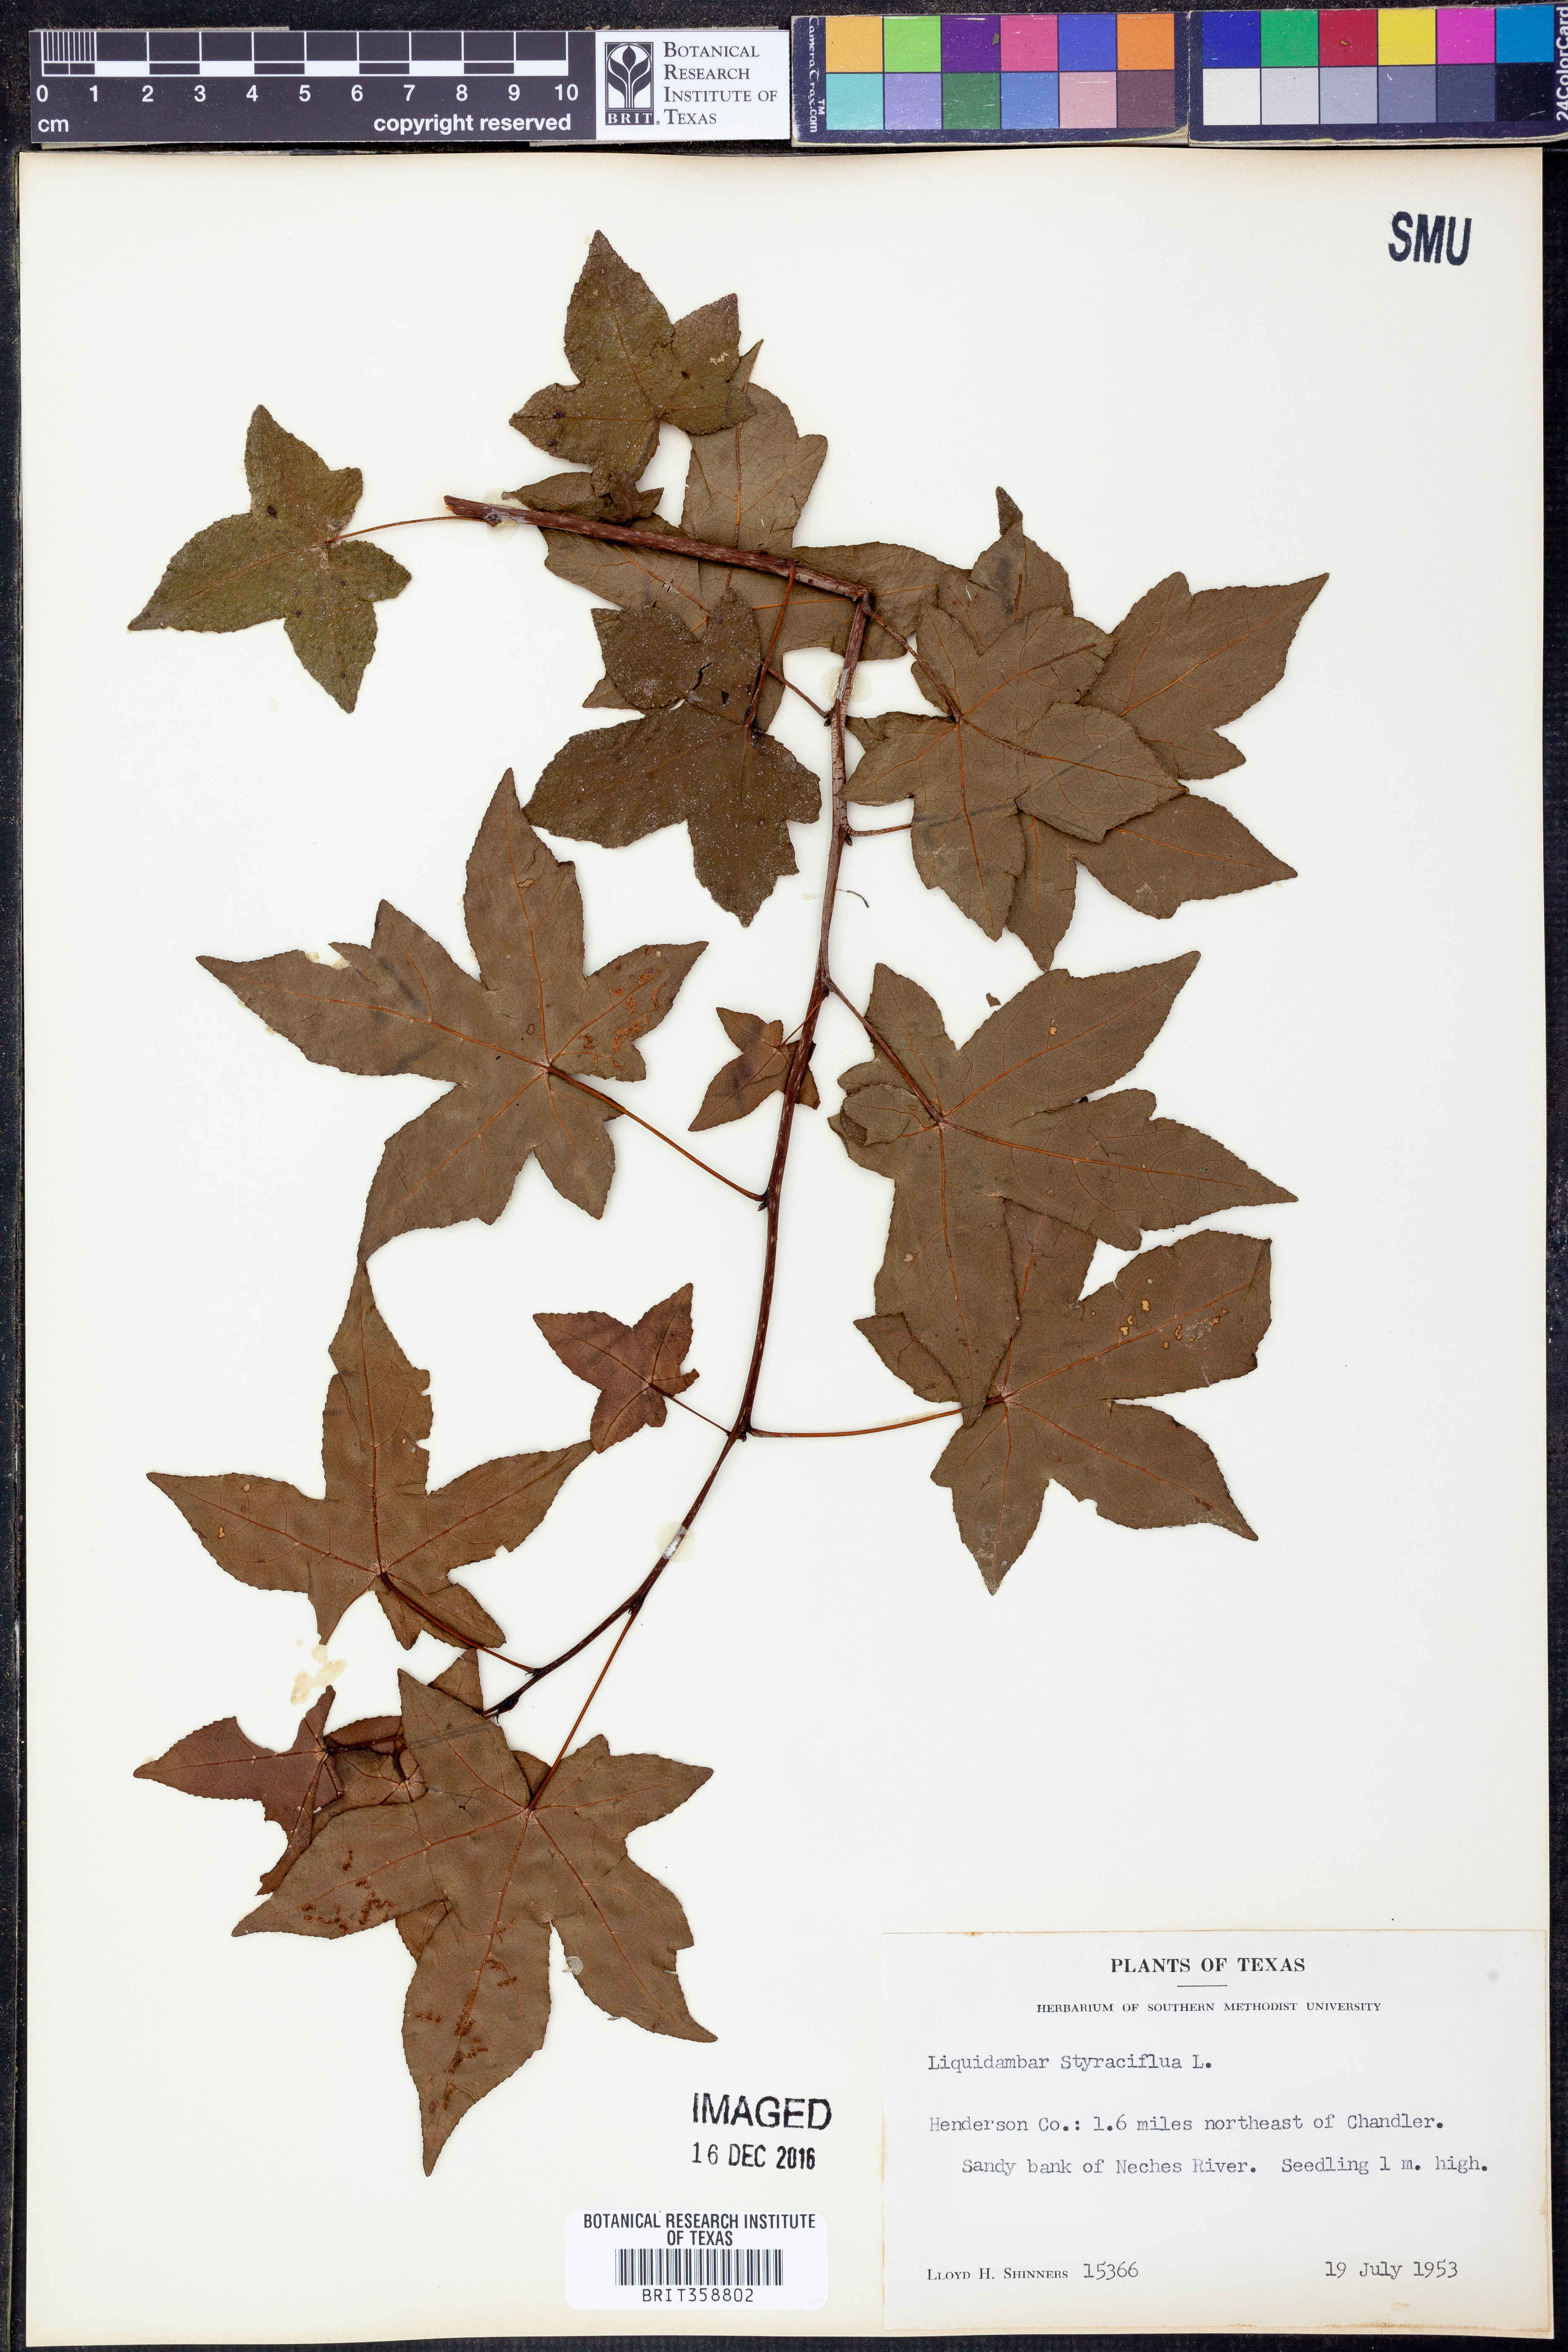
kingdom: Plantae
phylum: Tracheophyta
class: Magnoliopsida
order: Saxifragales
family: Altingiaceae
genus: Liquidambar
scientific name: Liquidambar styraciflua
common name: Sweet gum
